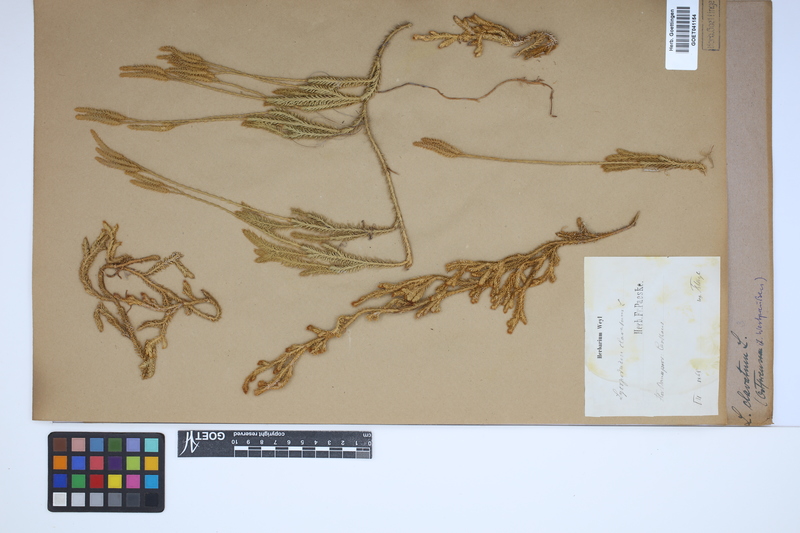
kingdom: Plantae
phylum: Tracheophyta
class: Lycopodiopsida
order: Lycopodiales
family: Lycopodiaceae
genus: Lycopodium
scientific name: Lycopodium clavatum
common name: Stag's-horn clubmoss
